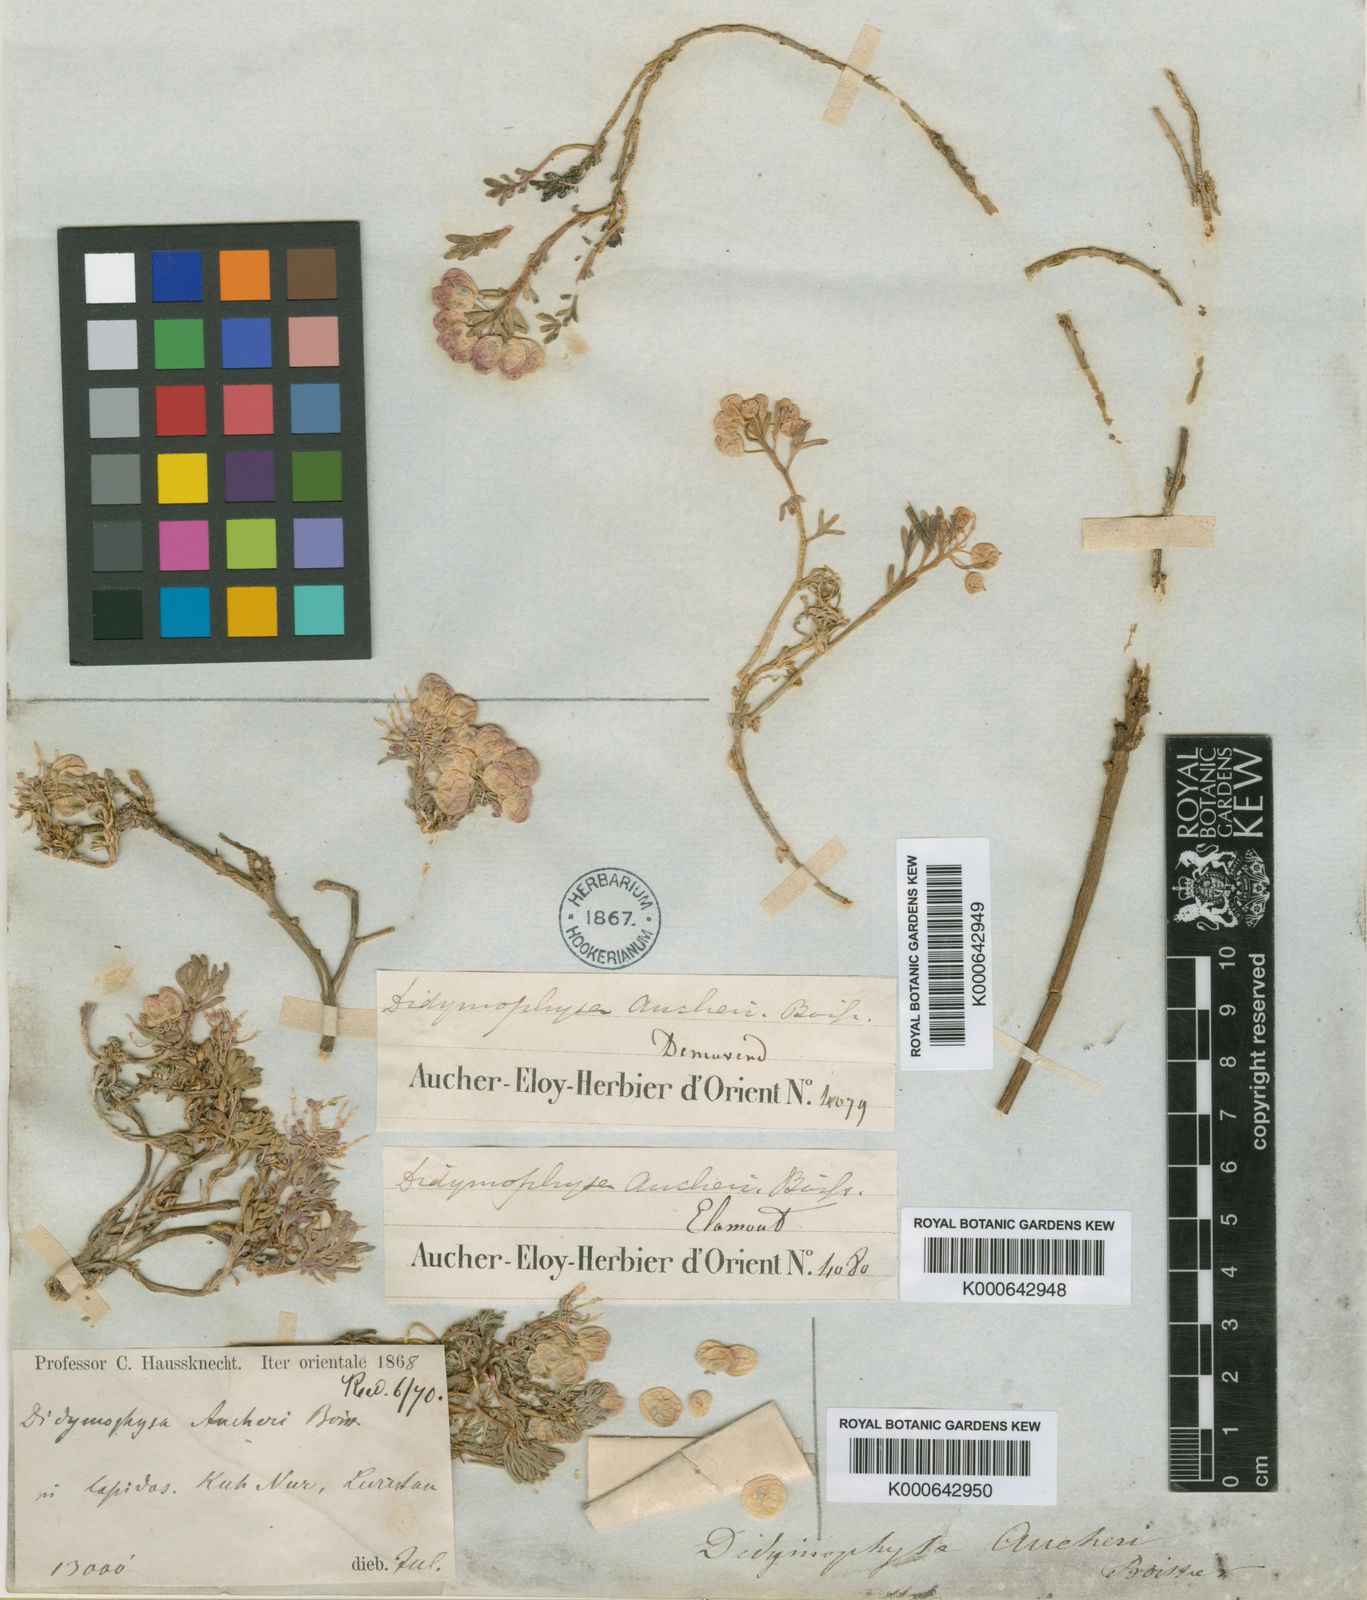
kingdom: Plantae
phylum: Tracheophyta
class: Magnoliopsida
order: Brassicales
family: Brassicaceae
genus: Didymophysa
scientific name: Didymophysa aucheri
